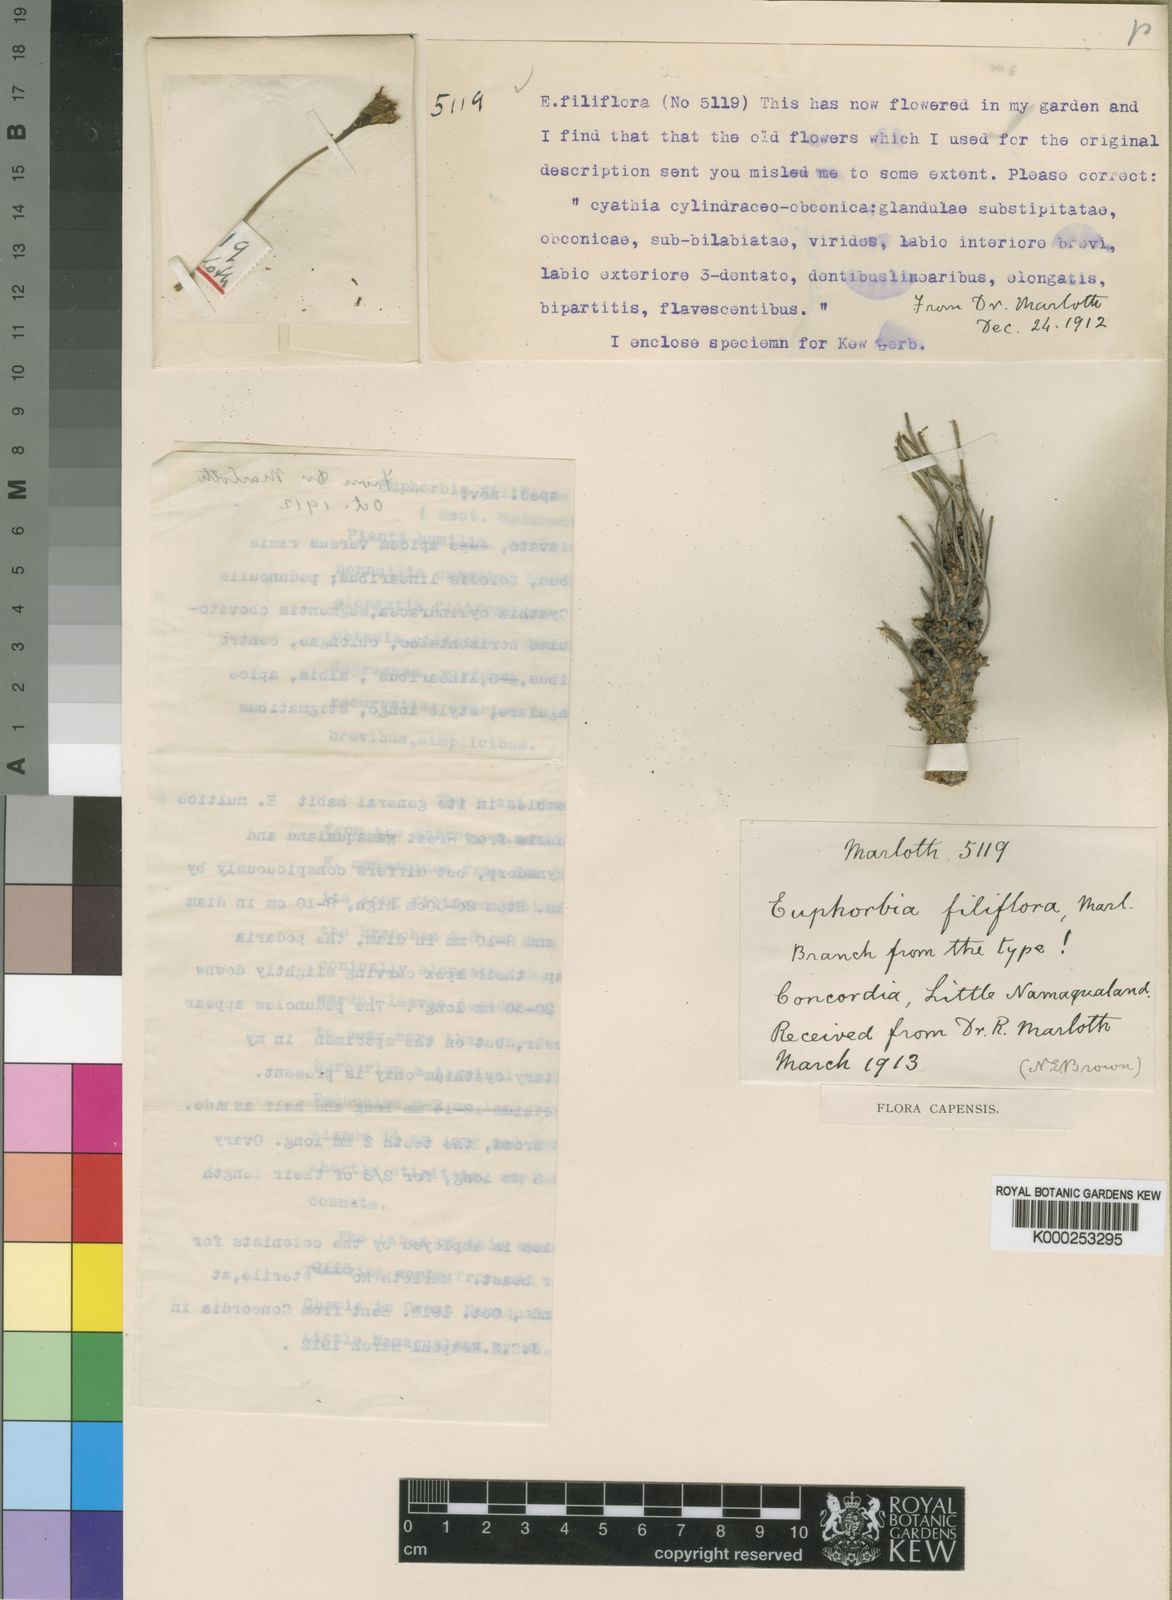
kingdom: Plantae
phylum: Tracheophyta
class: Magnoliopsida
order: Malpighiales
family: Euphorbiaceae
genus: Euphorbia
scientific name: Euphorbia filiflora
